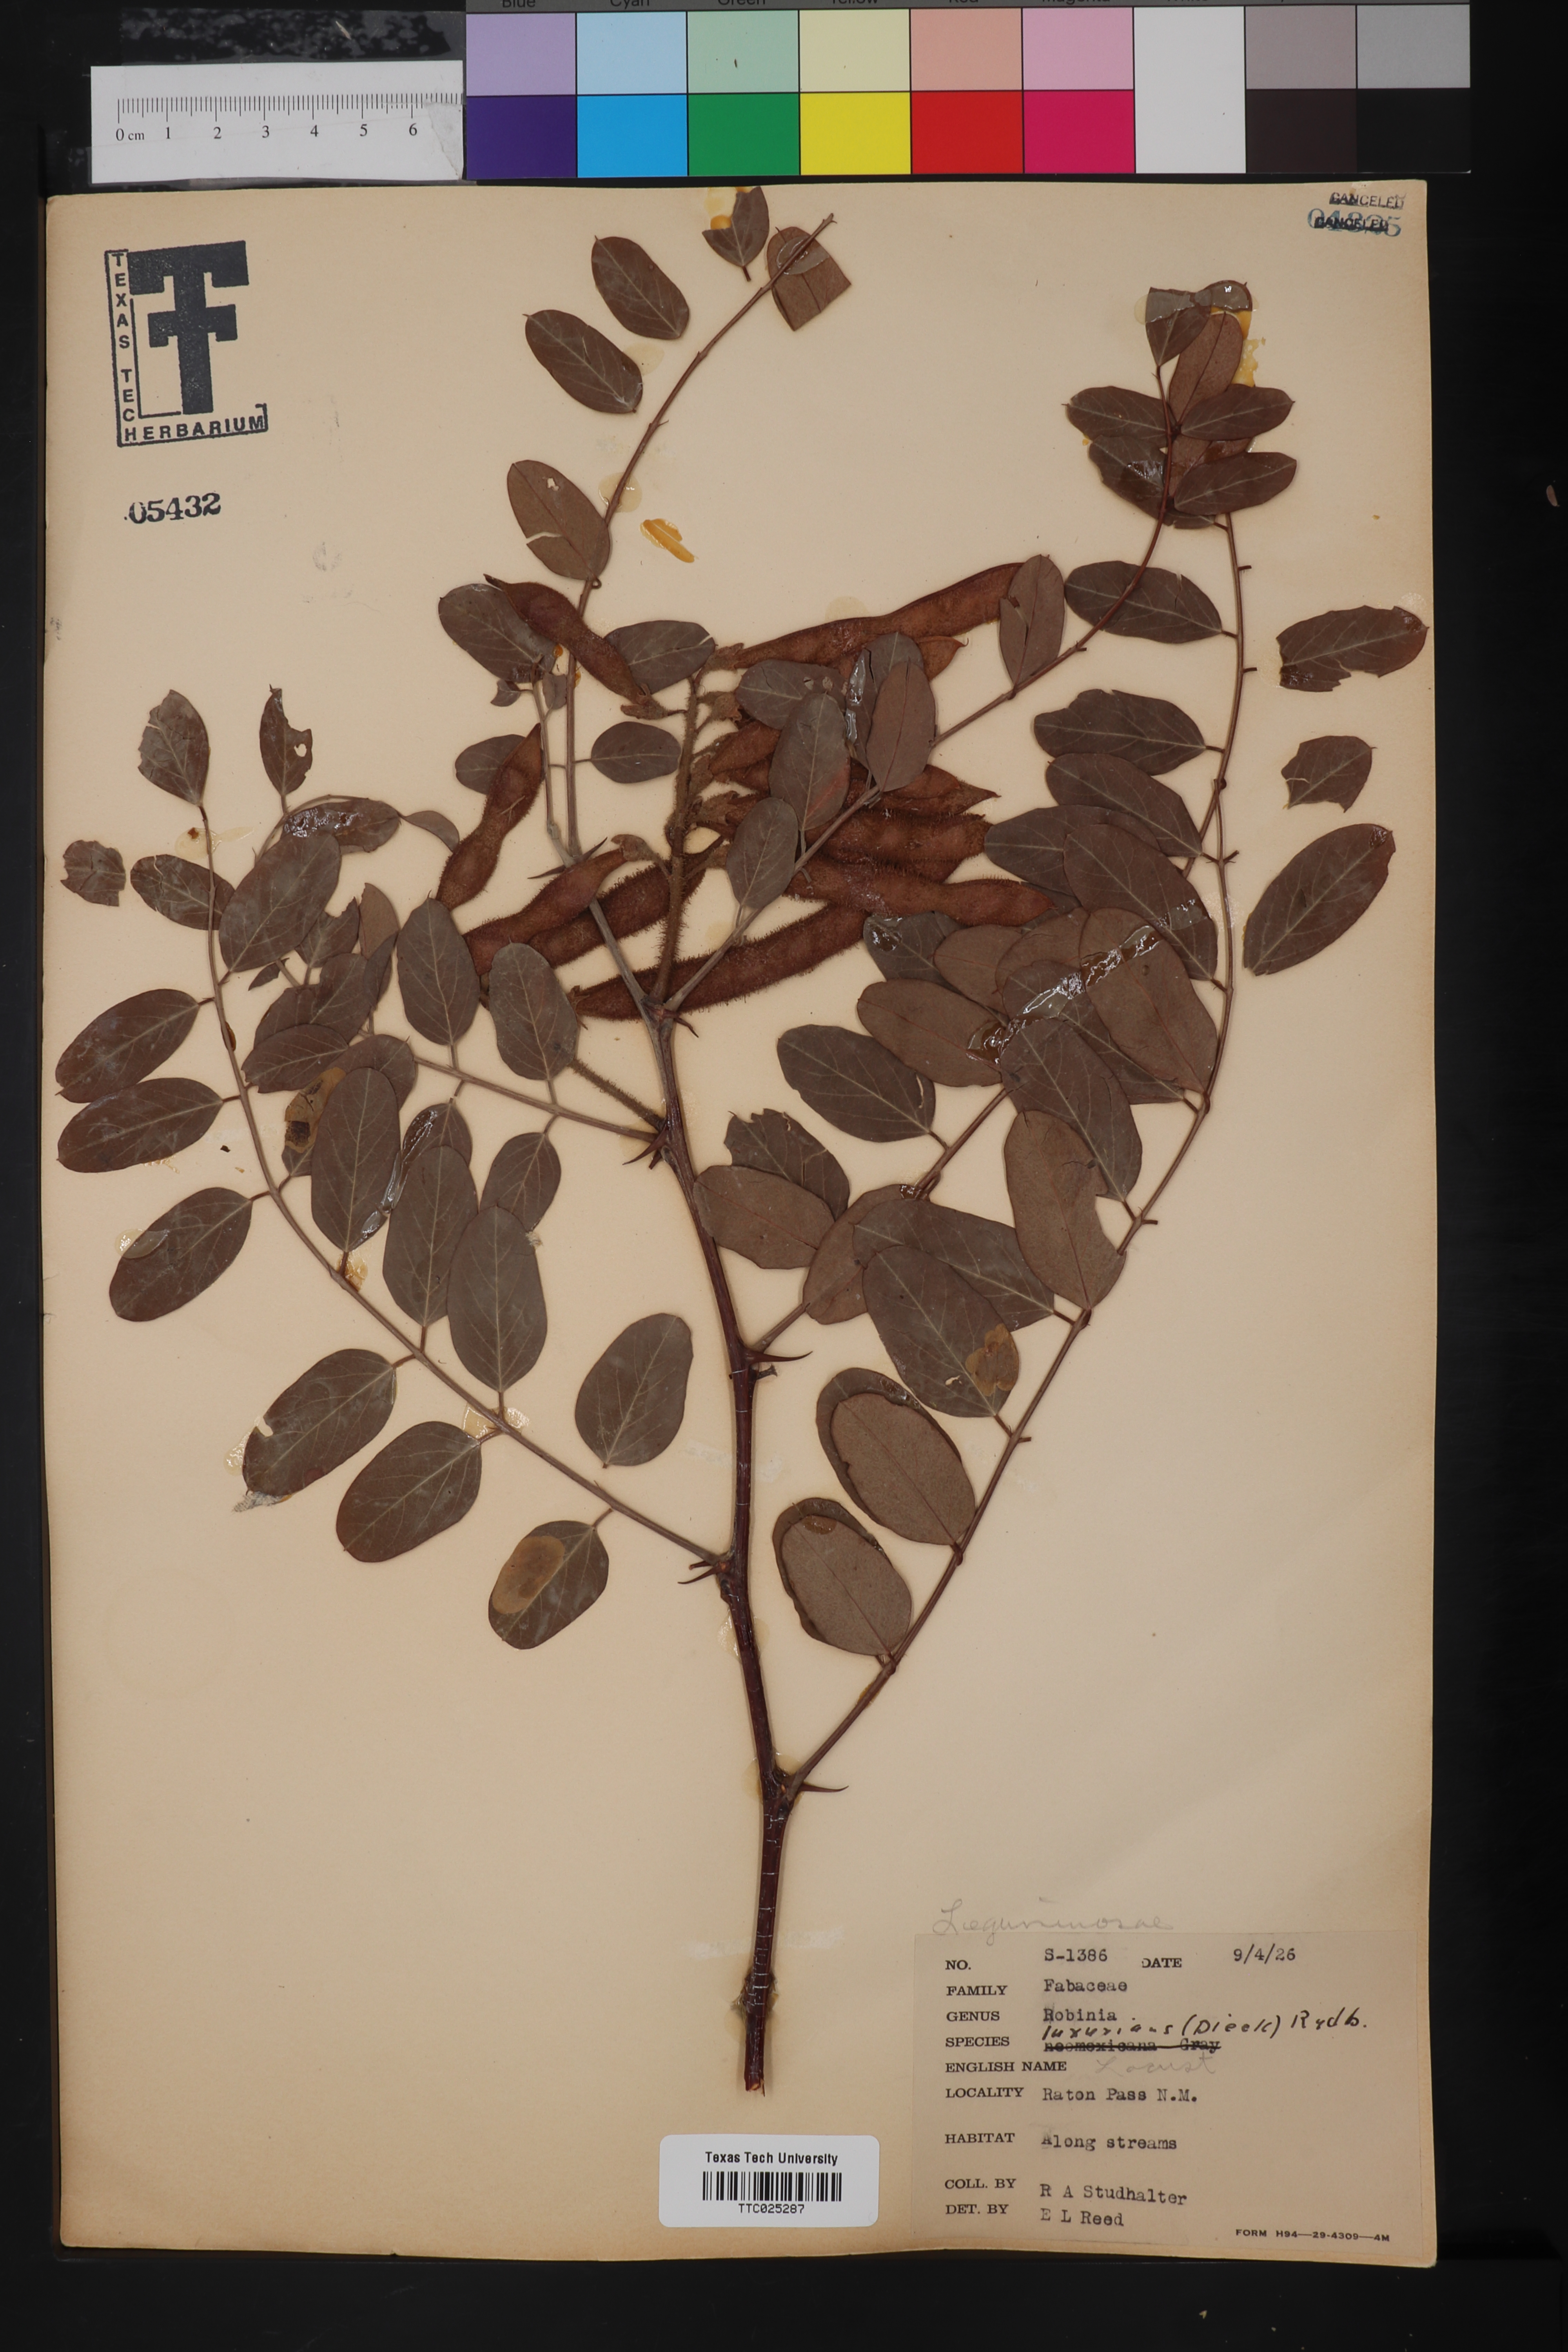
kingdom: Plantae
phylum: Tracheophyta
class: Magnoliopsida
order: Fabales
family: Fabaceae
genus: Robinia
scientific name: Robinia neomexicana
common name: New mexico locust
